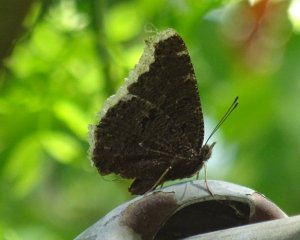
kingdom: Animalia
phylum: Arthropoda
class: Insecta
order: Lepidoptera
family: Nymphalidae
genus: Nymphalis
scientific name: Nymphalis antiopa
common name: Mourning Cloak
